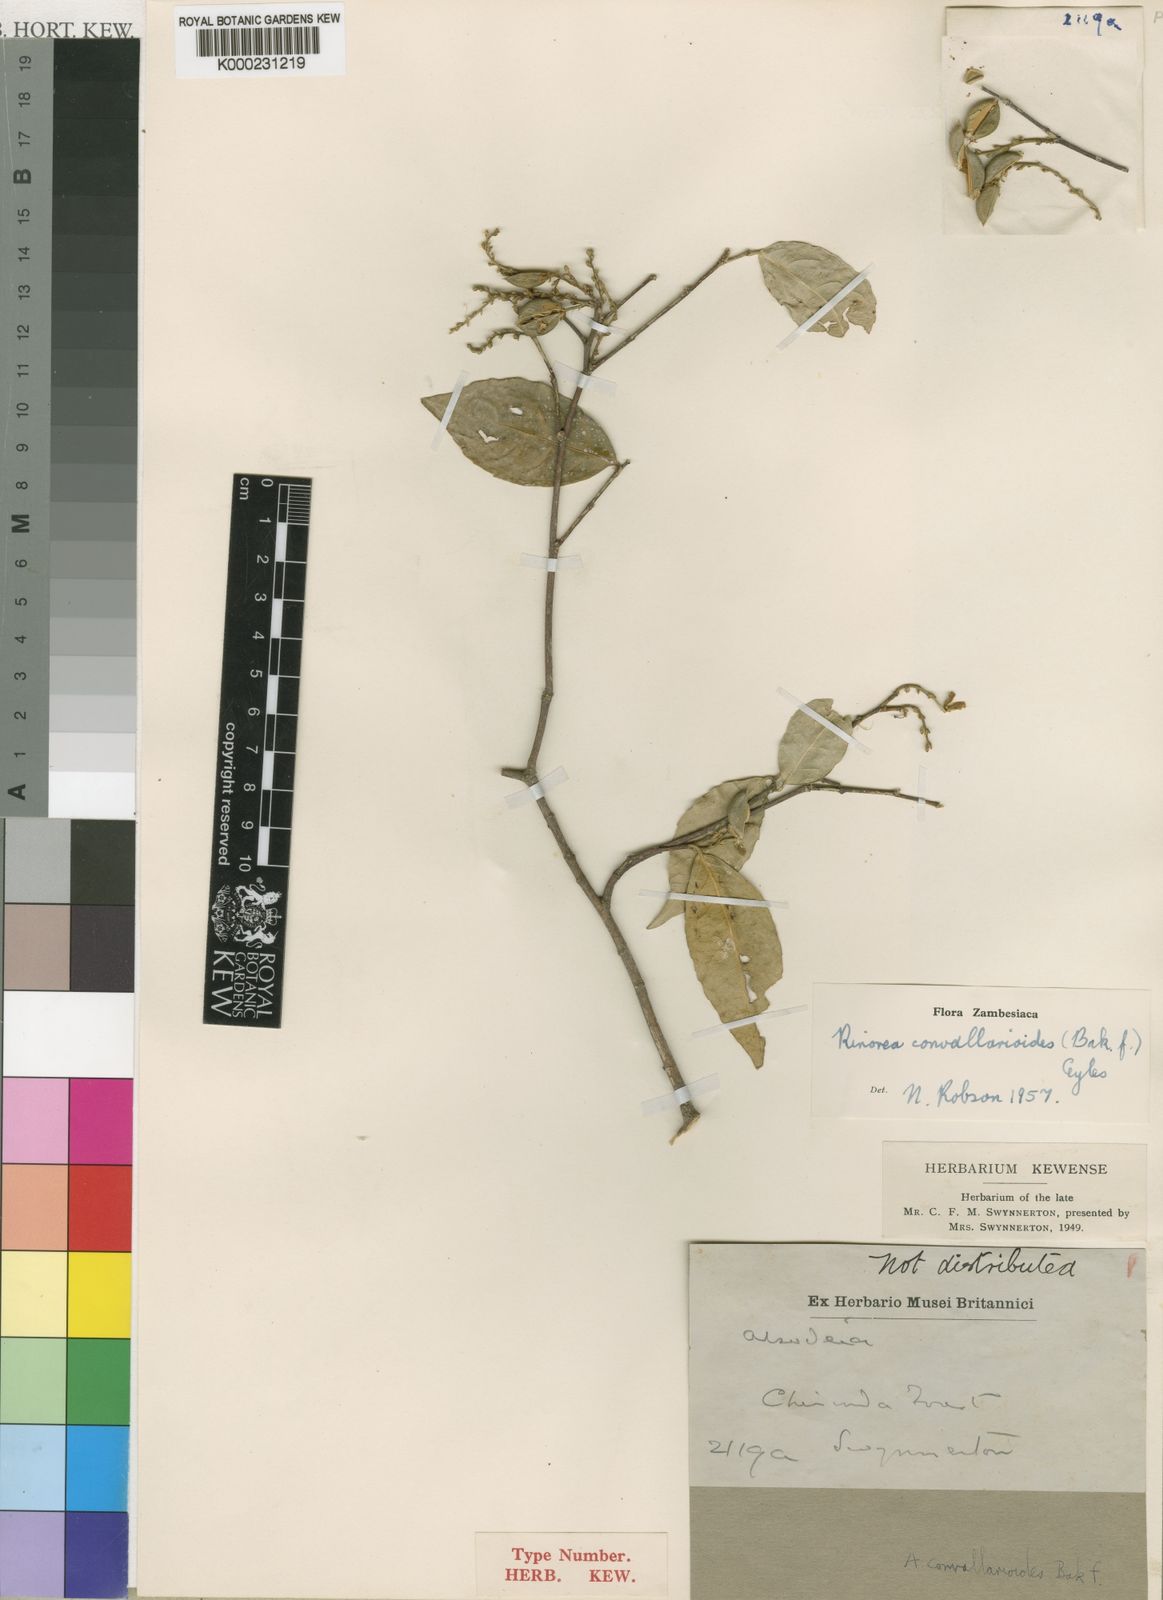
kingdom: Plantae
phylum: Tracheophyta
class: Magnoliopsida
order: Malpighiales
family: Violaceae
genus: Rinorea
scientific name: Rinorea convallarioides
